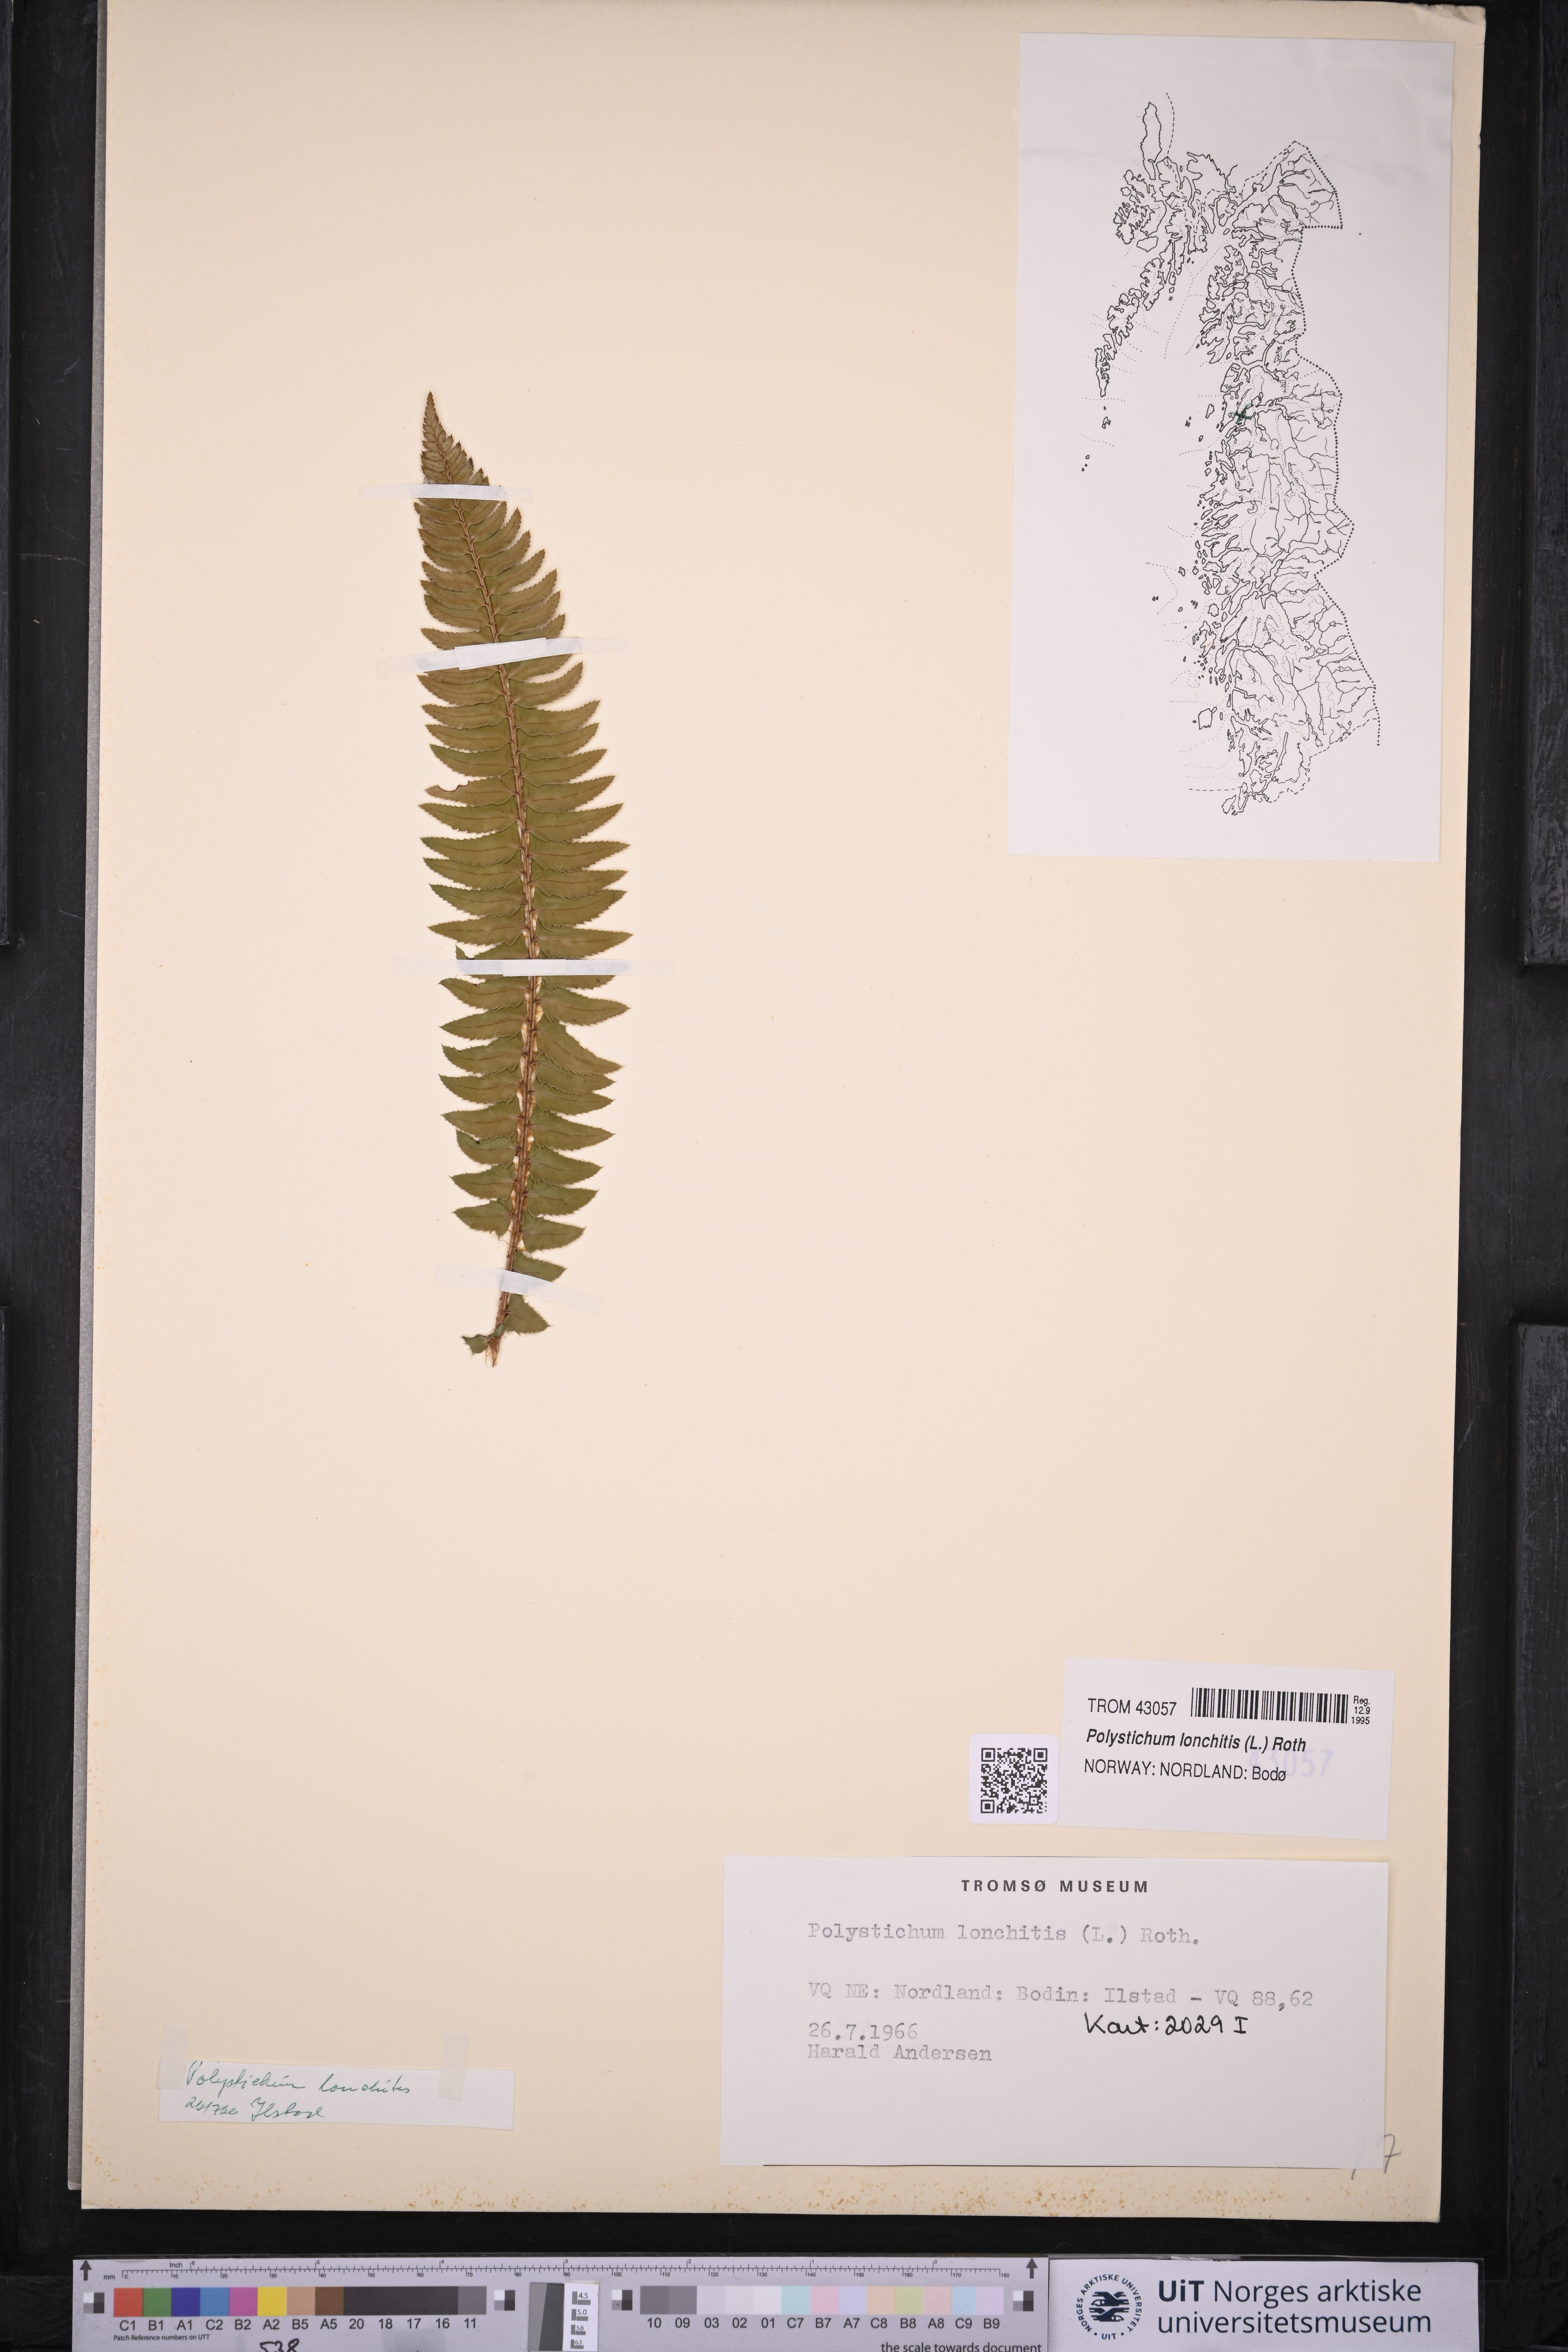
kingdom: Plantae
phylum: Tracheophyta
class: Polypodiopsida
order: Polypodiales
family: Dryopteridaceae
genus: Polystichum
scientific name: Polystichum lonchitis
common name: Holly fern
